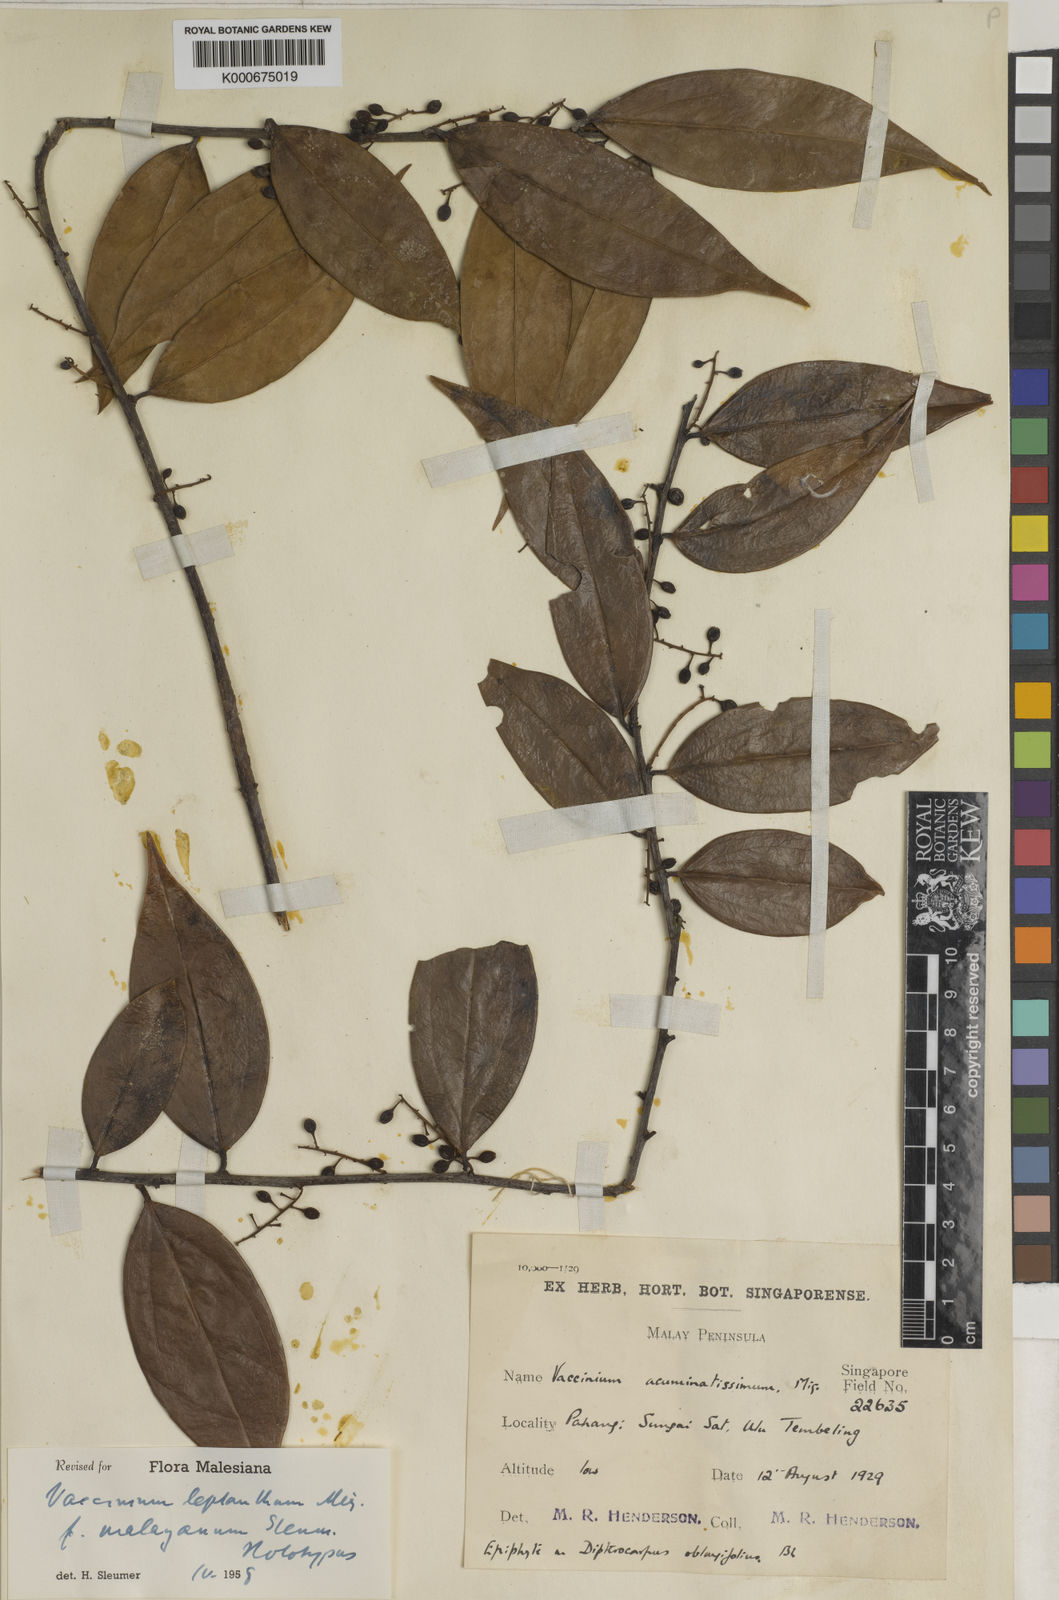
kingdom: Plantae
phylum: Tracheophyta
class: Magnoliopsida
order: Ericales
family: Ericaceae
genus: Rigiolepis
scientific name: Rigiolepis leptantha
